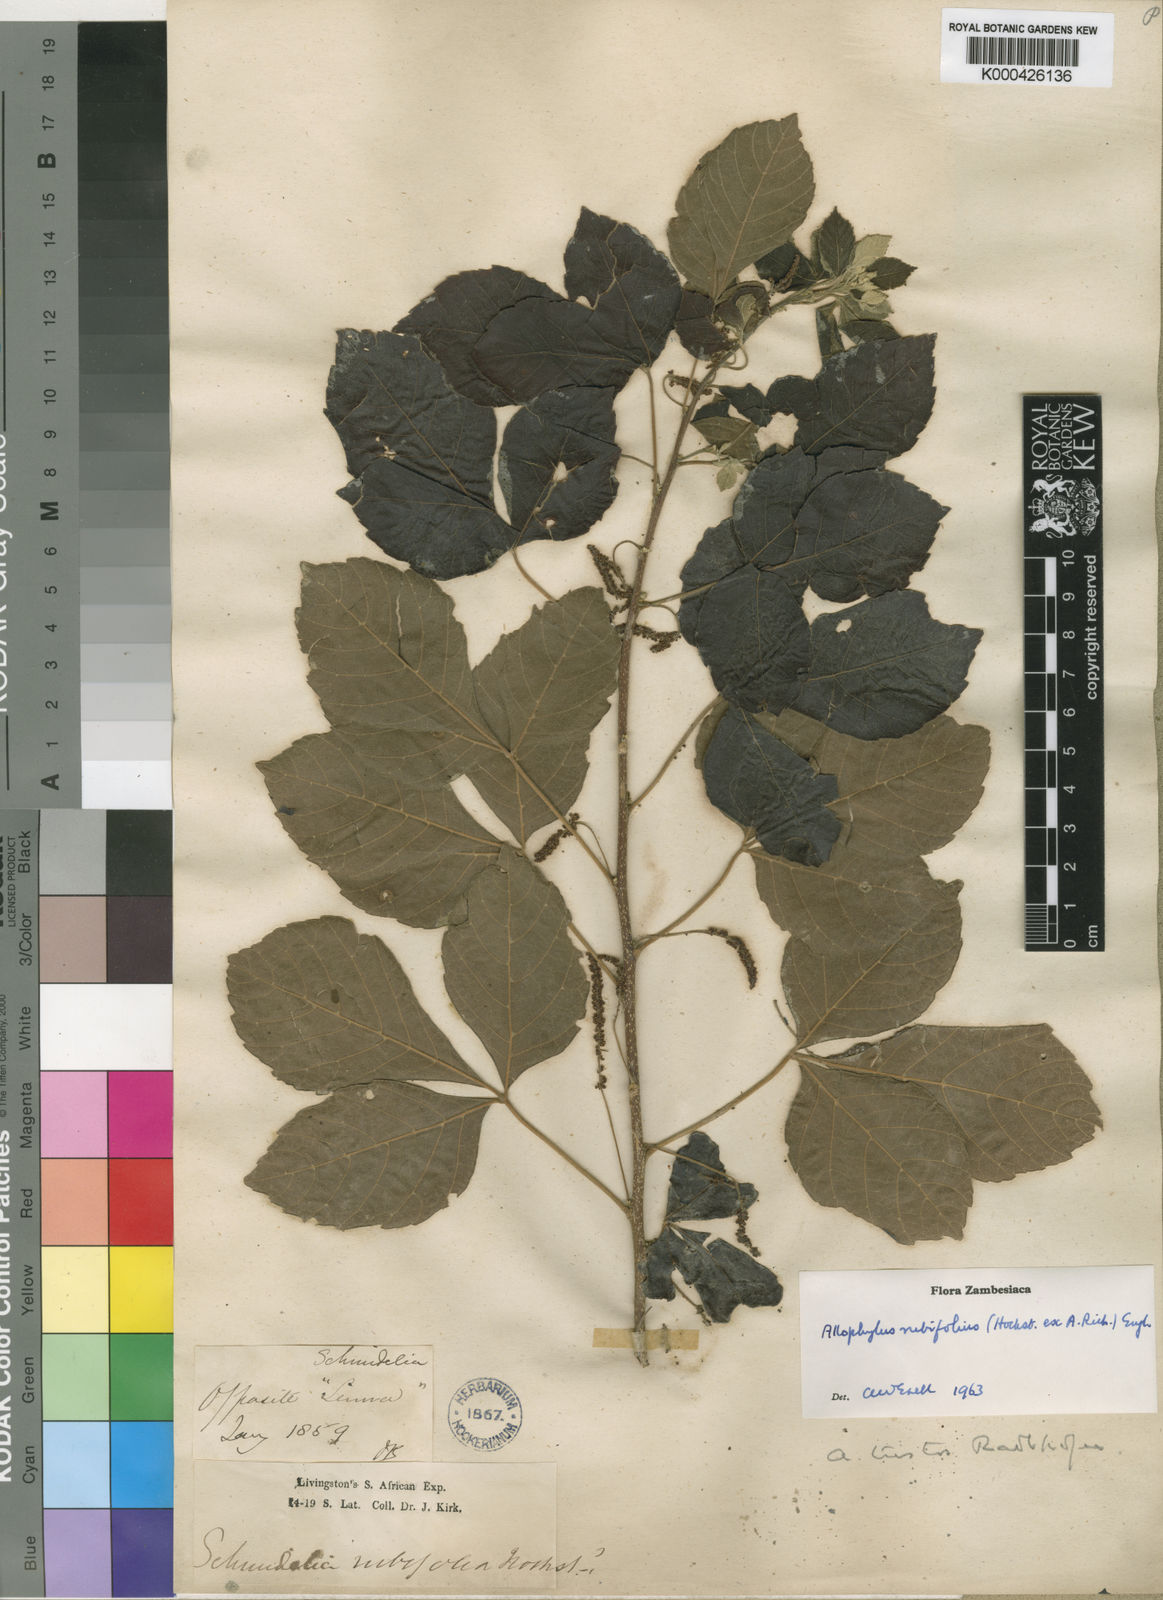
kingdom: Plantae
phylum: Tracheophyta
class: Magnoliopsida
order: Sapindales
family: Sapindaceae
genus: Allophylus
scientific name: Allophylus rubifolius
